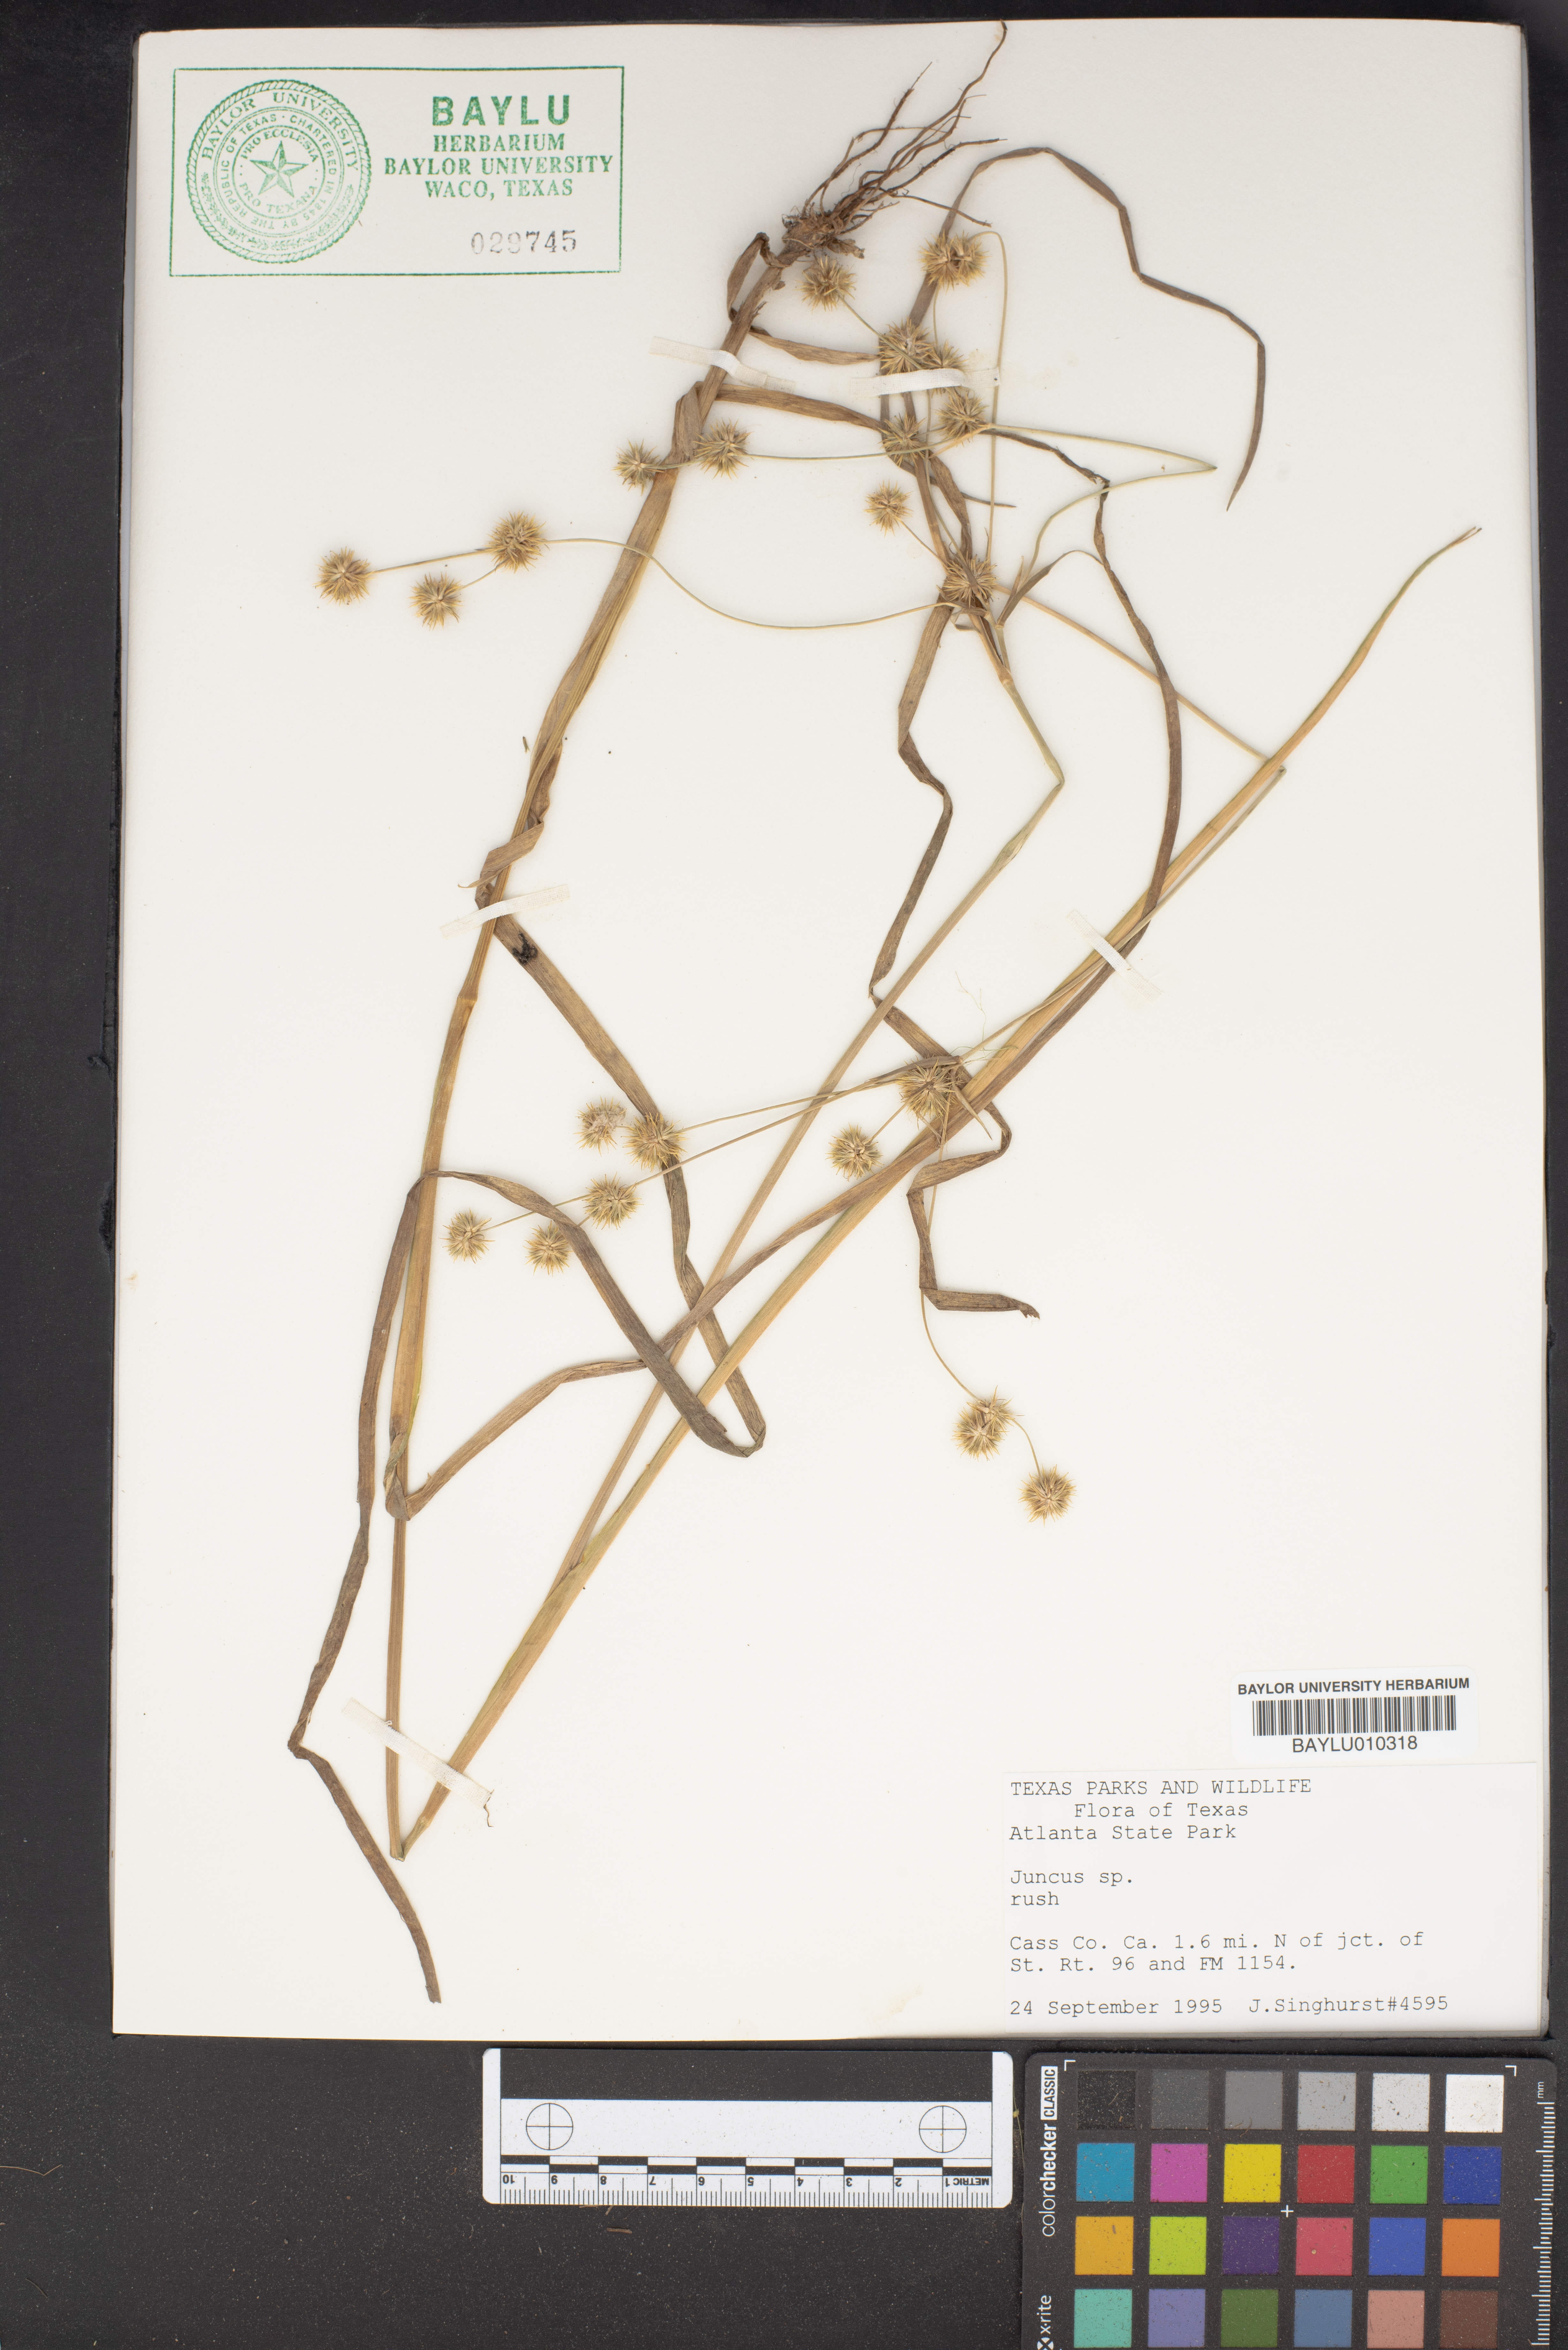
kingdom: Plantae
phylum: Tracheophyta
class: Liliopsida
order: Poales
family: Juncaceae
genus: Juncus
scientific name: Juncus
